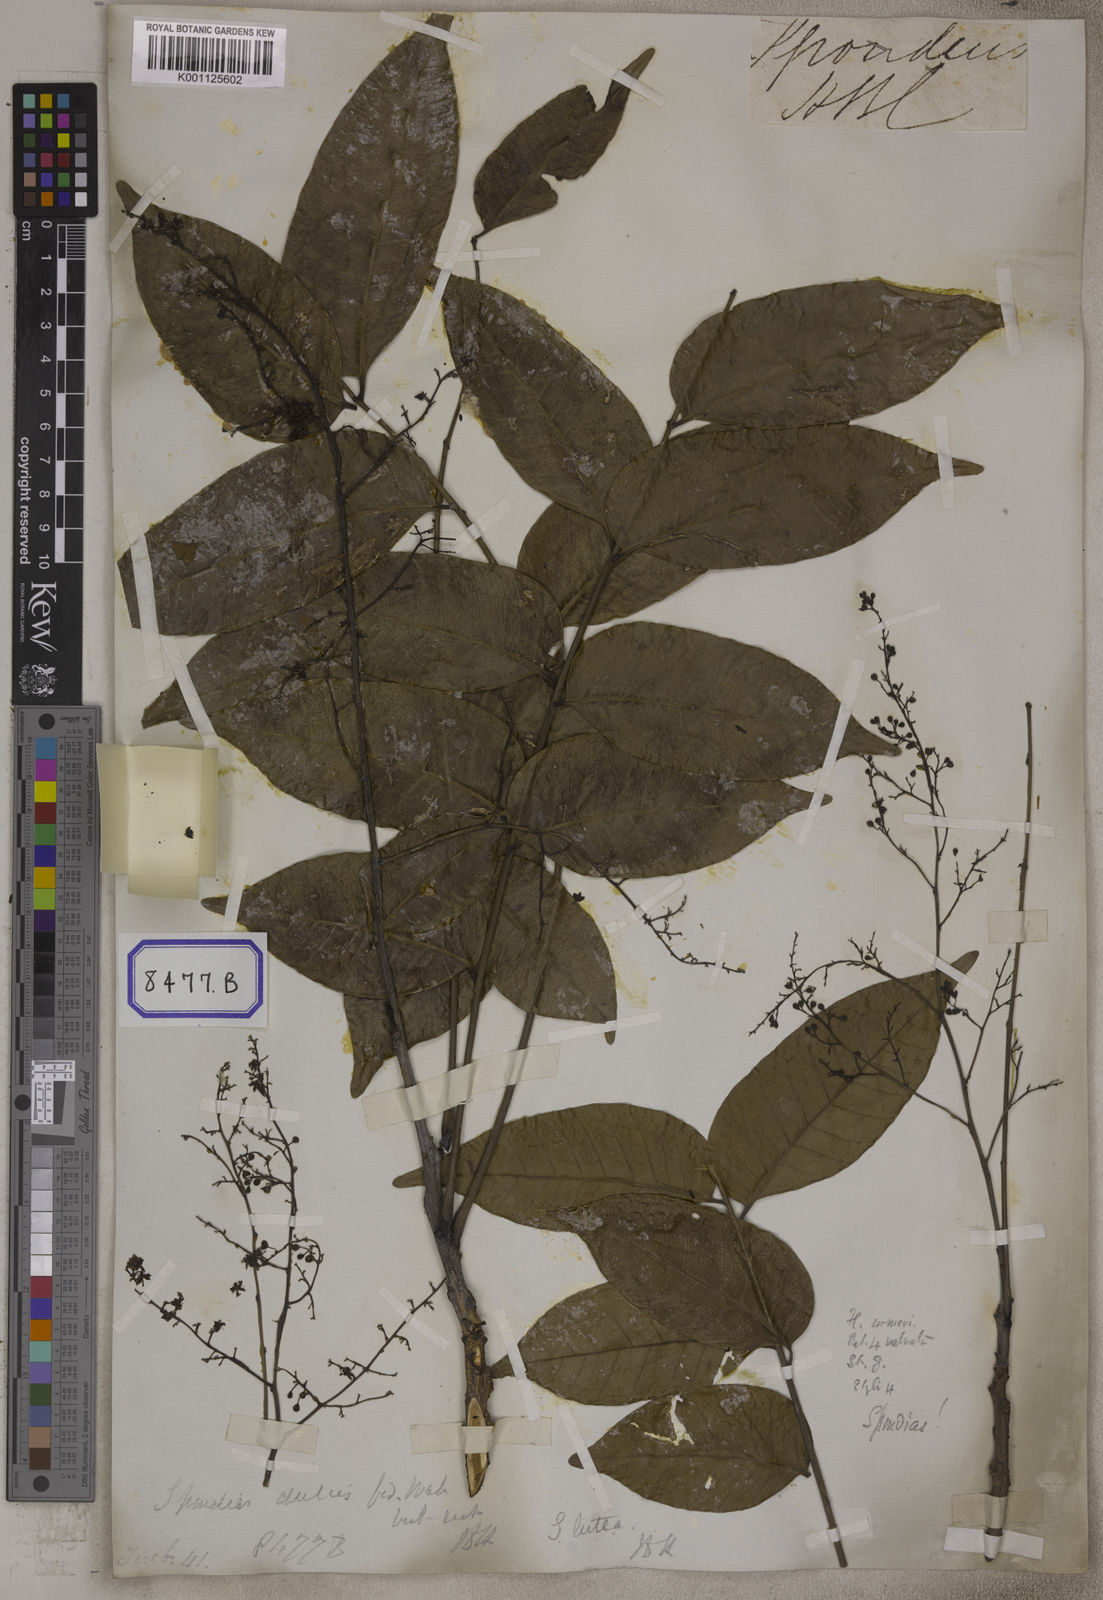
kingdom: Plantae
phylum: Tracheophyta
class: Magnoliopsida
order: Sapindales
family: Anacardiaceae
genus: Spondias
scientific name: Spondias
